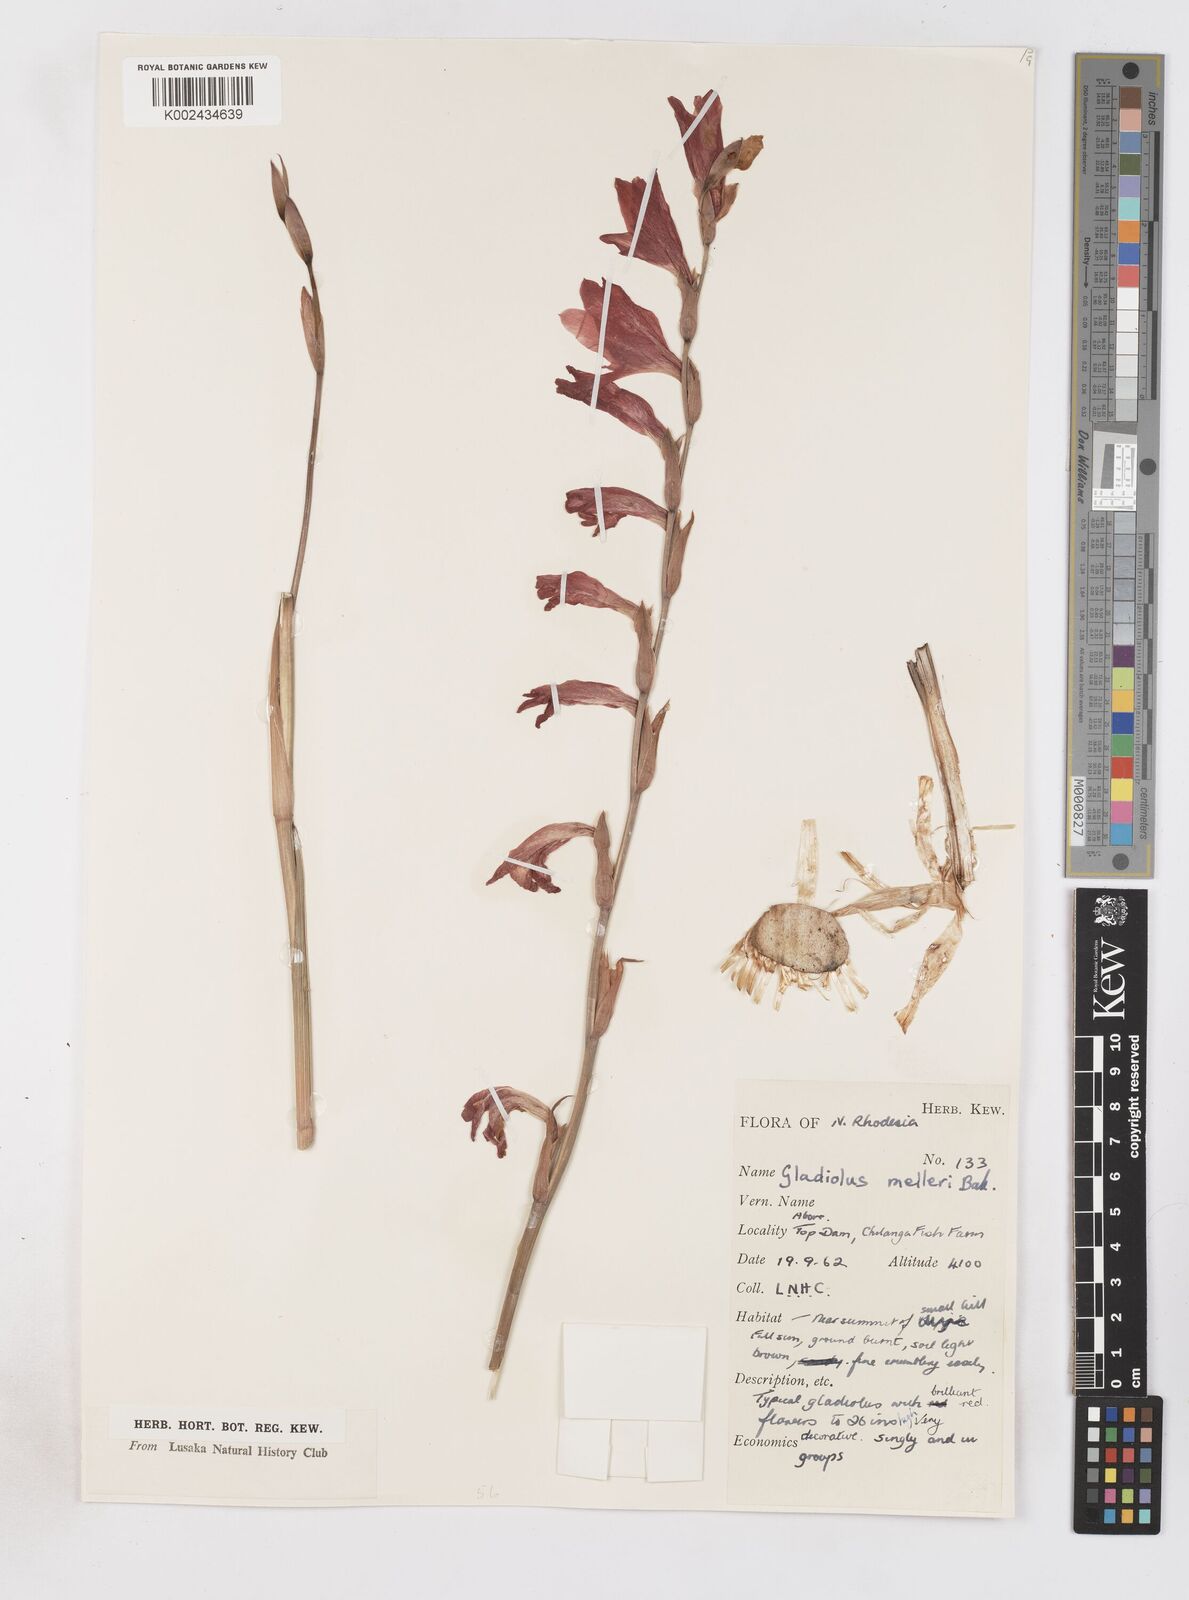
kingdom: Plantae
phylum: Tracheophyta
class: Liliopsida
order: Asparagales
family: Iridaceae
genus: Gladiolus
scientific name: Gladiolus melleri
